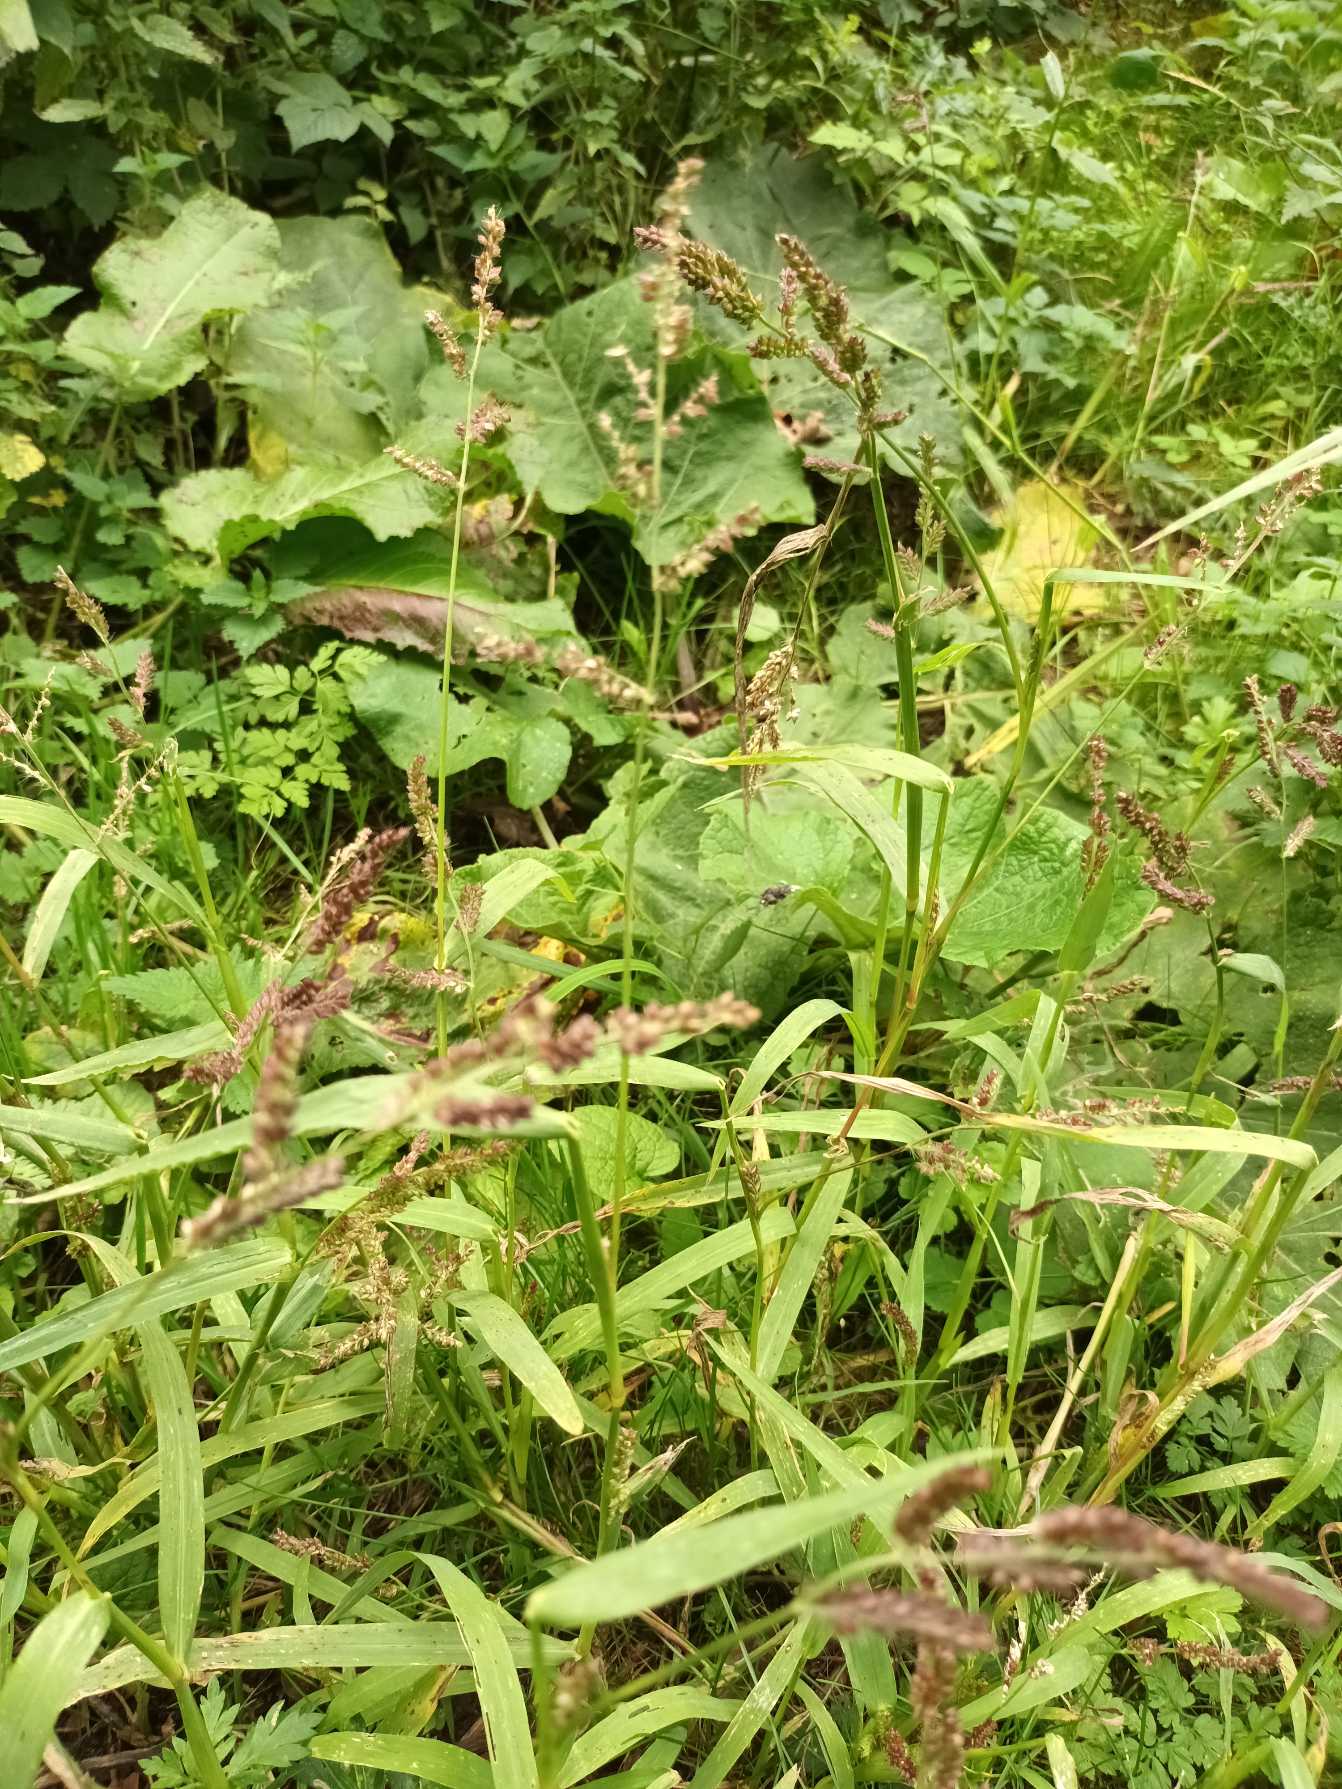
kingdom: Plantae
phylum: Tracheophyta
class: Liliopsida
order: Poales
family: Poaceae
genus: Echinochloa
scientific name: Echinochloa crus-galli
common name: Almindelig hanespore
